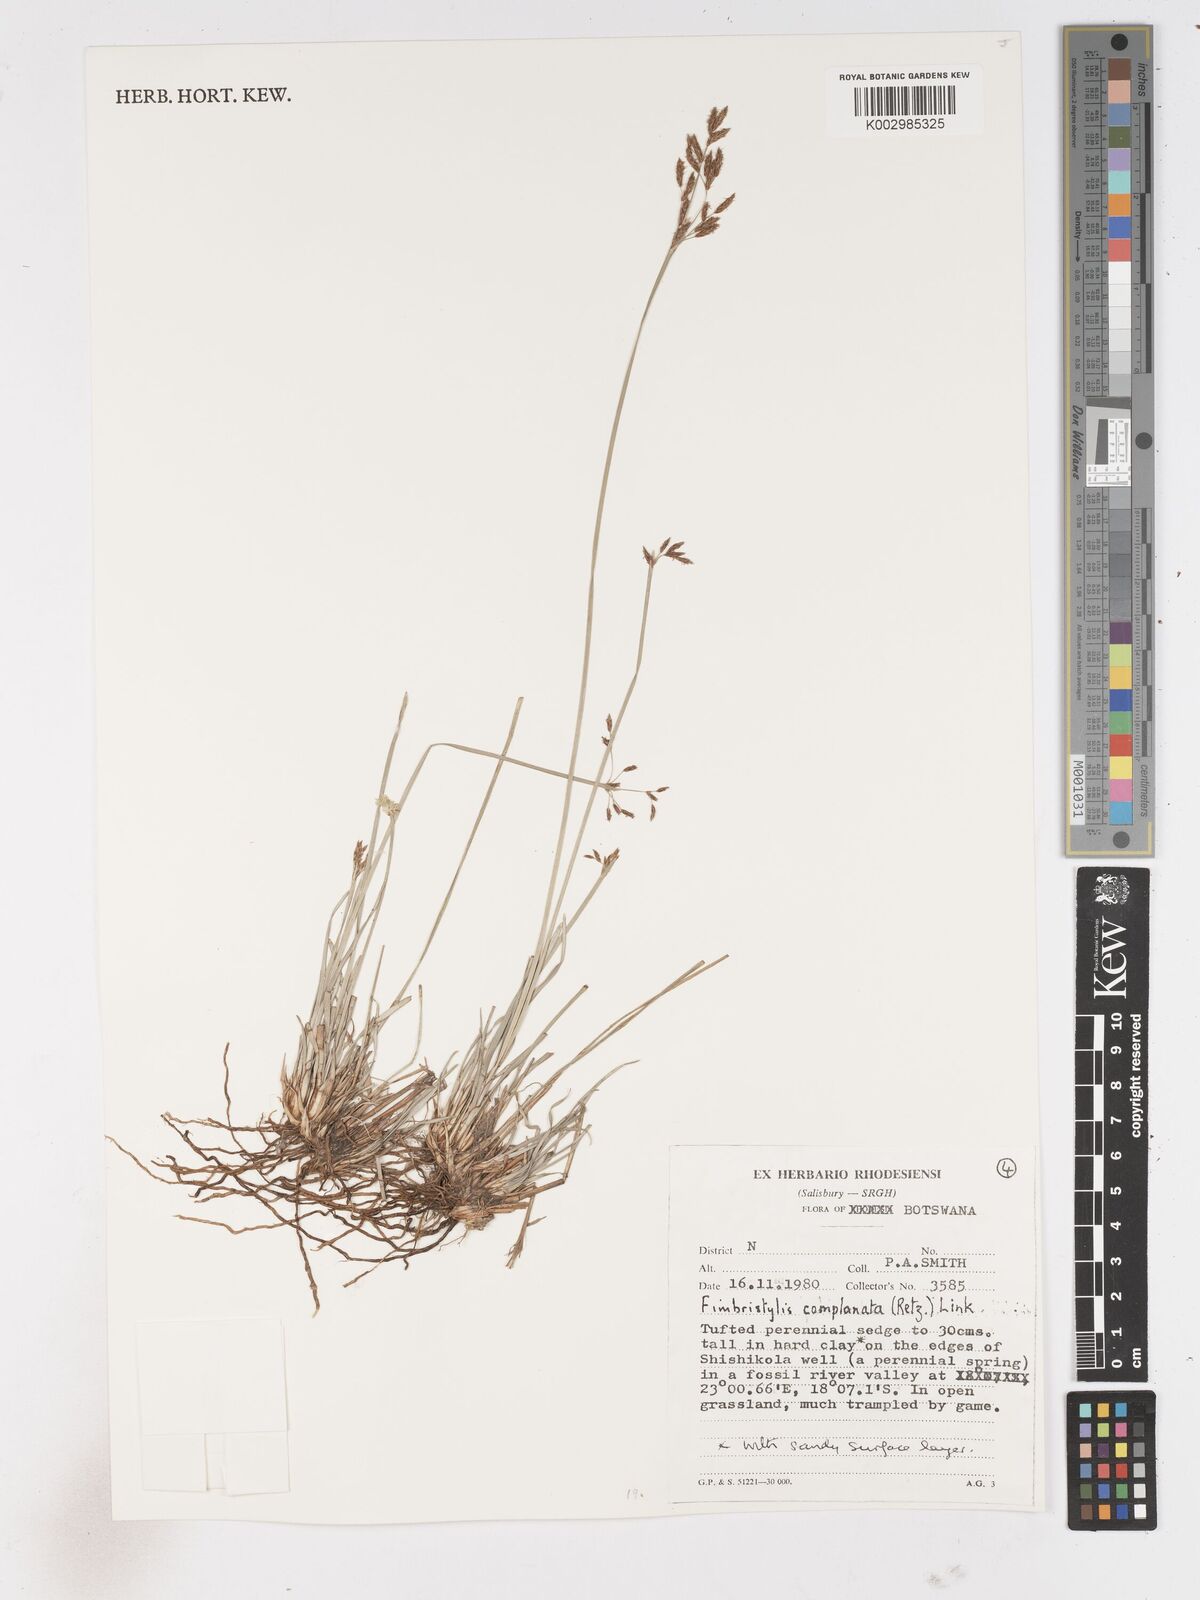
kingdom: Plantae
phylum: Tracheophyta
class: Liliopsida
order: Poales
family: Cyperaceae
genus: Fimbristylis
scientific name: Fimbristylis complanata
